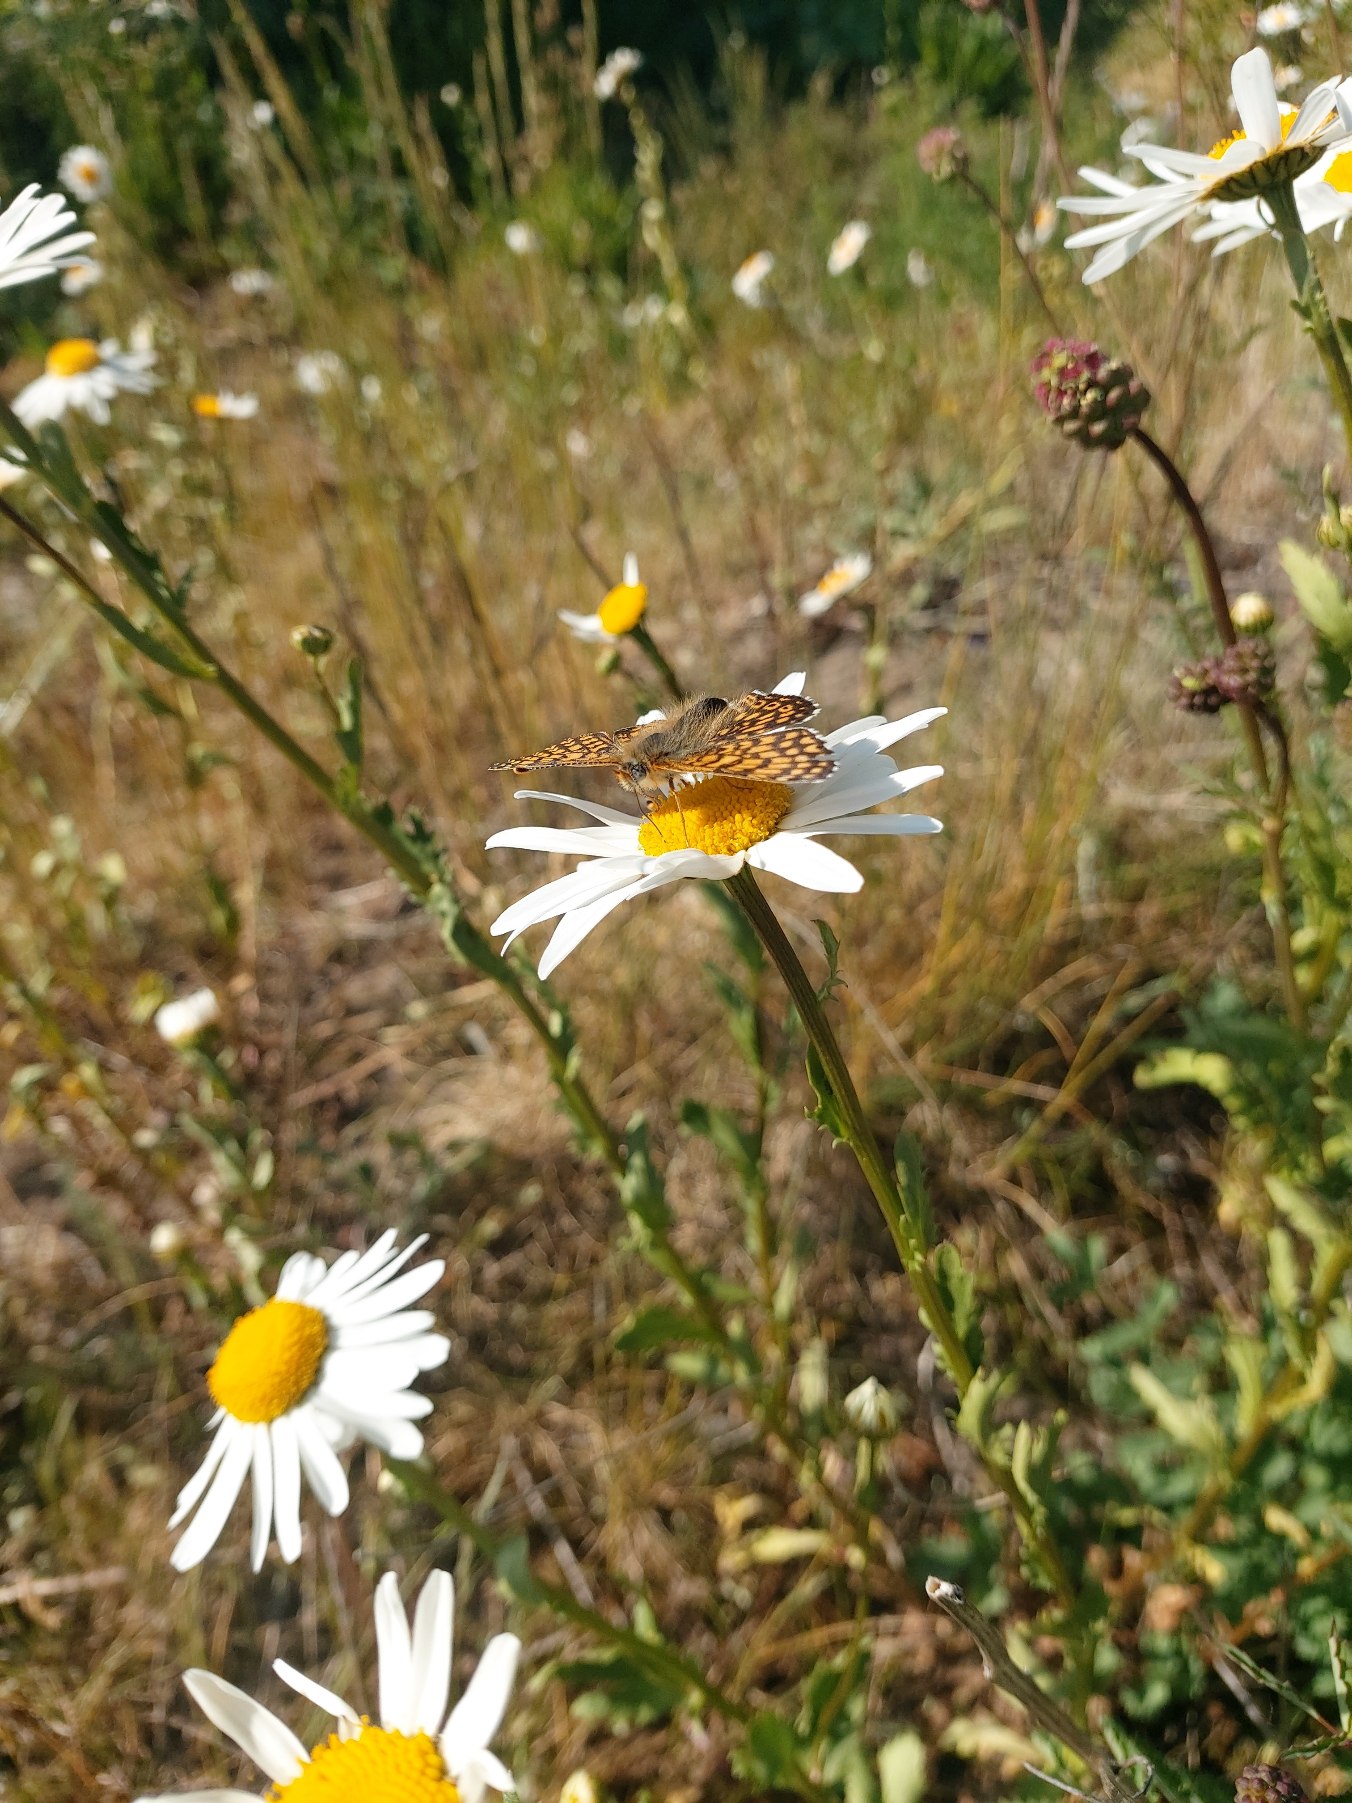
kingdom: Animalia
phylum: Arthropoda
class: Insecta
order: Lepidoptera
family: Nymphalidae
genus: Melitaea
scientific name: Melitaea cinxia
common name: Okkergul pletvinge
